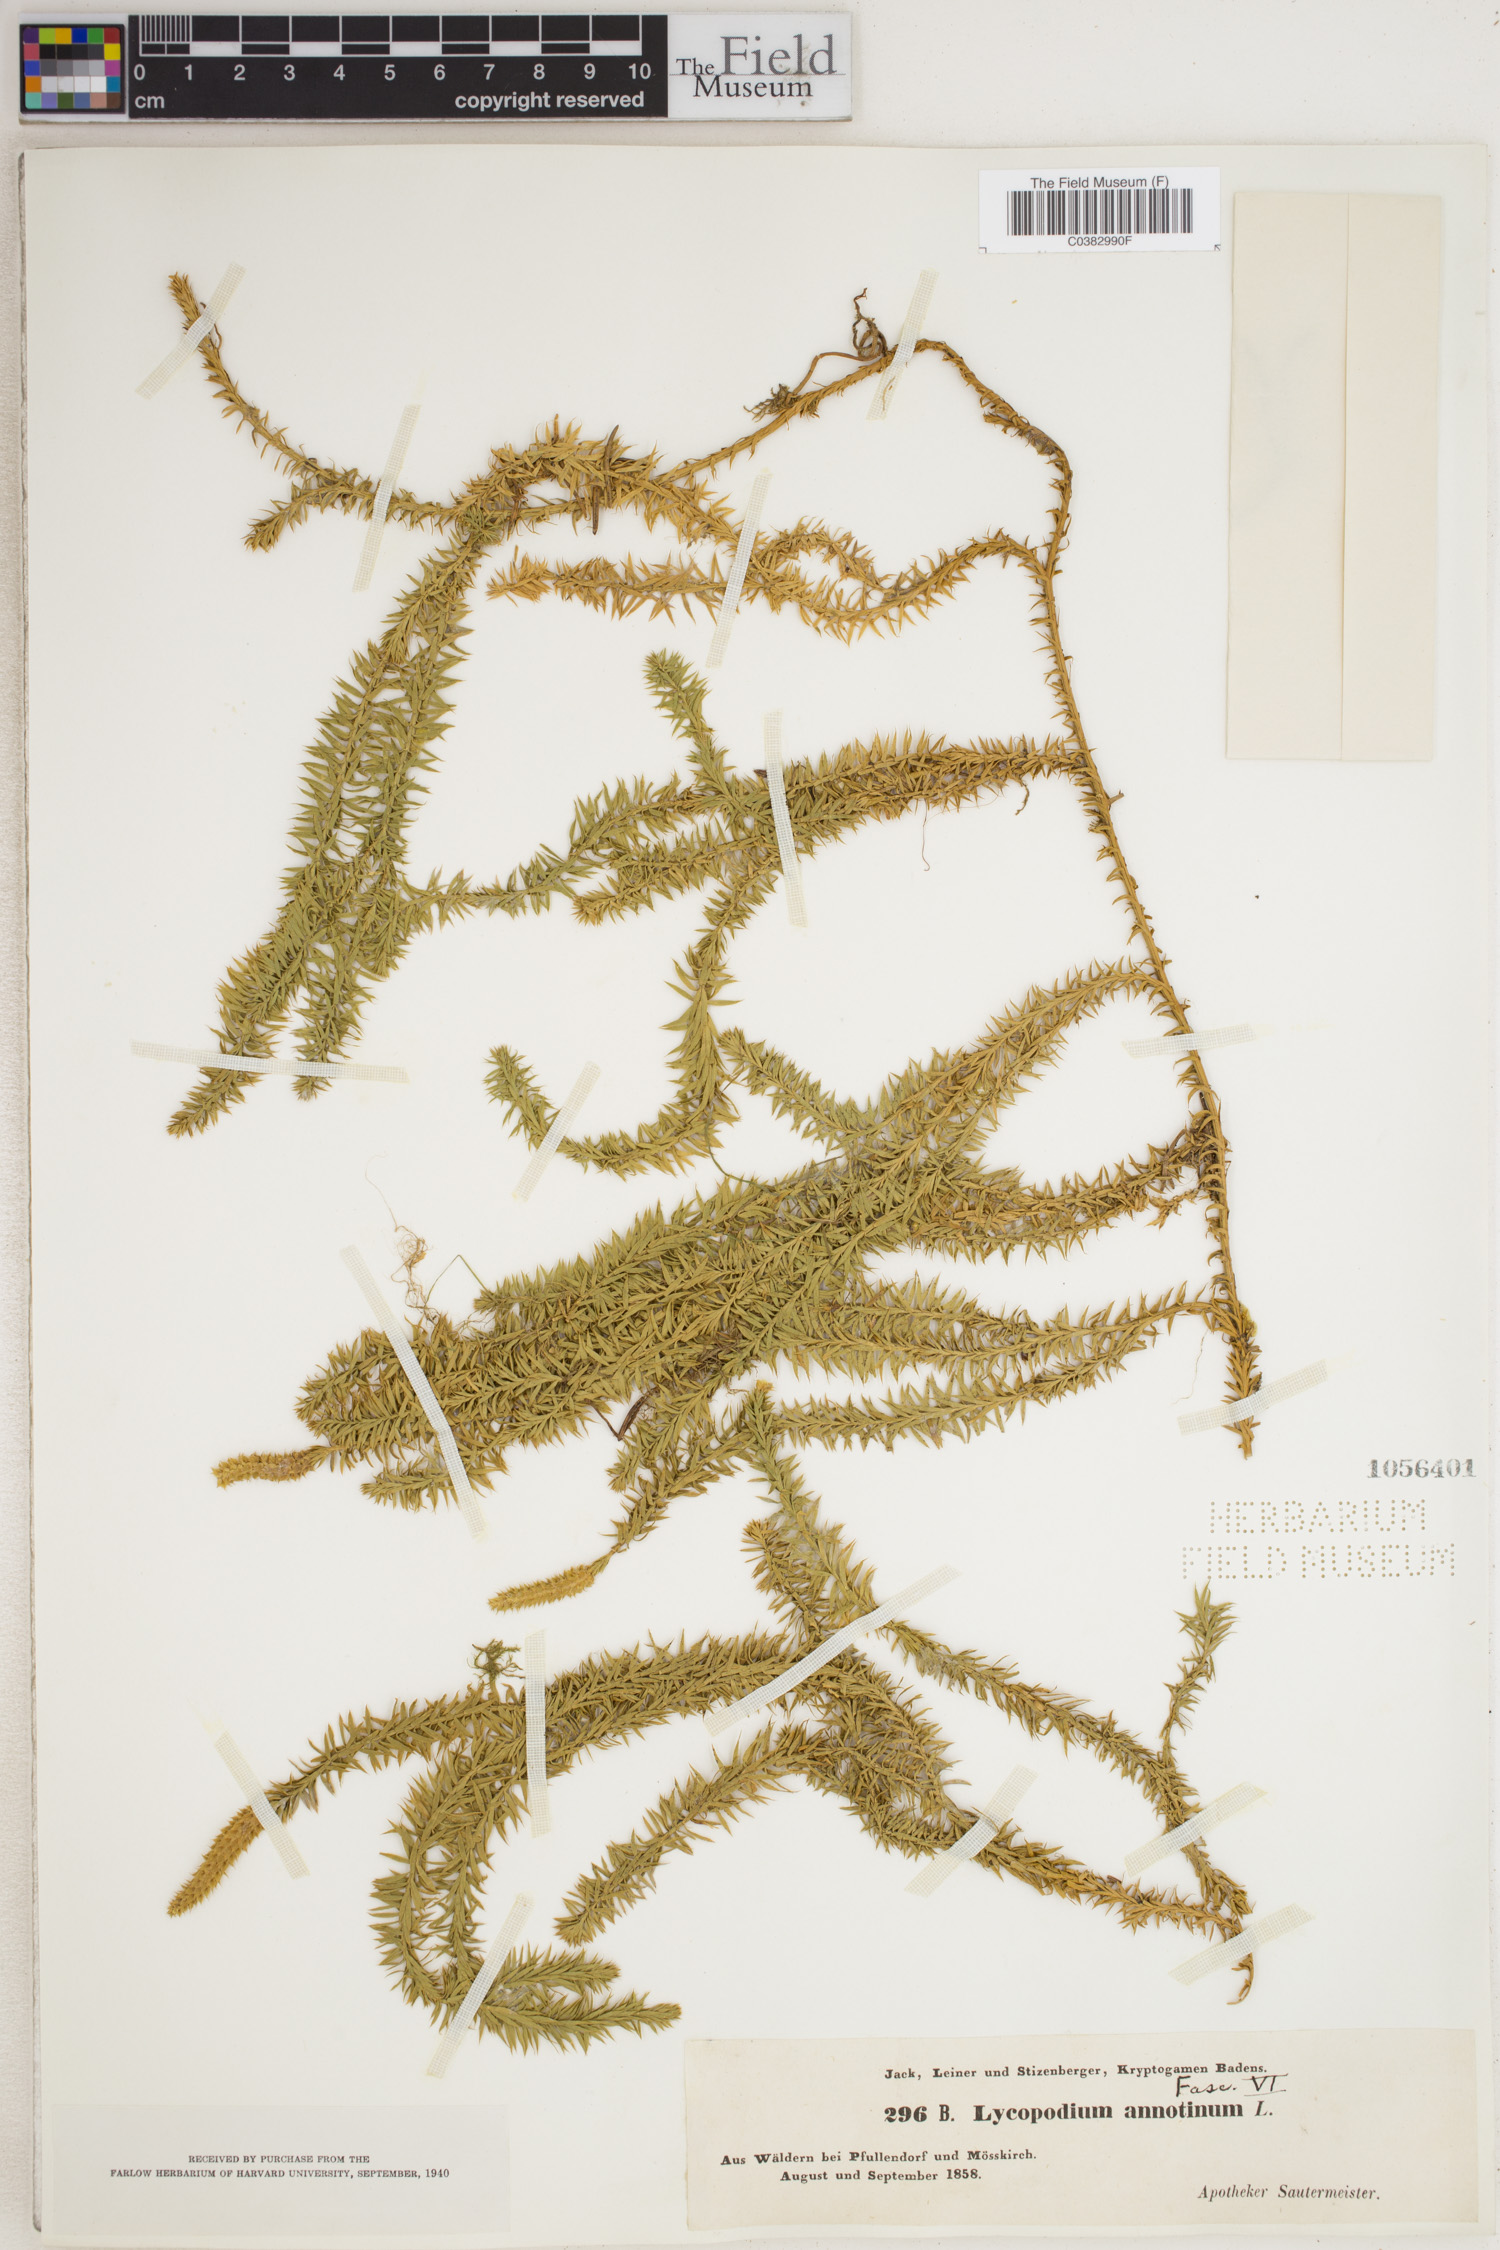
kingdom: Plantae
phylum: Tracheophyta
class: Lycopodiopsida
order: Lycopodiales
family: Lycopodiaceae
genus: Spinulum
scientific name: Spinulum annotinum
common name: Interrupted club-moss
